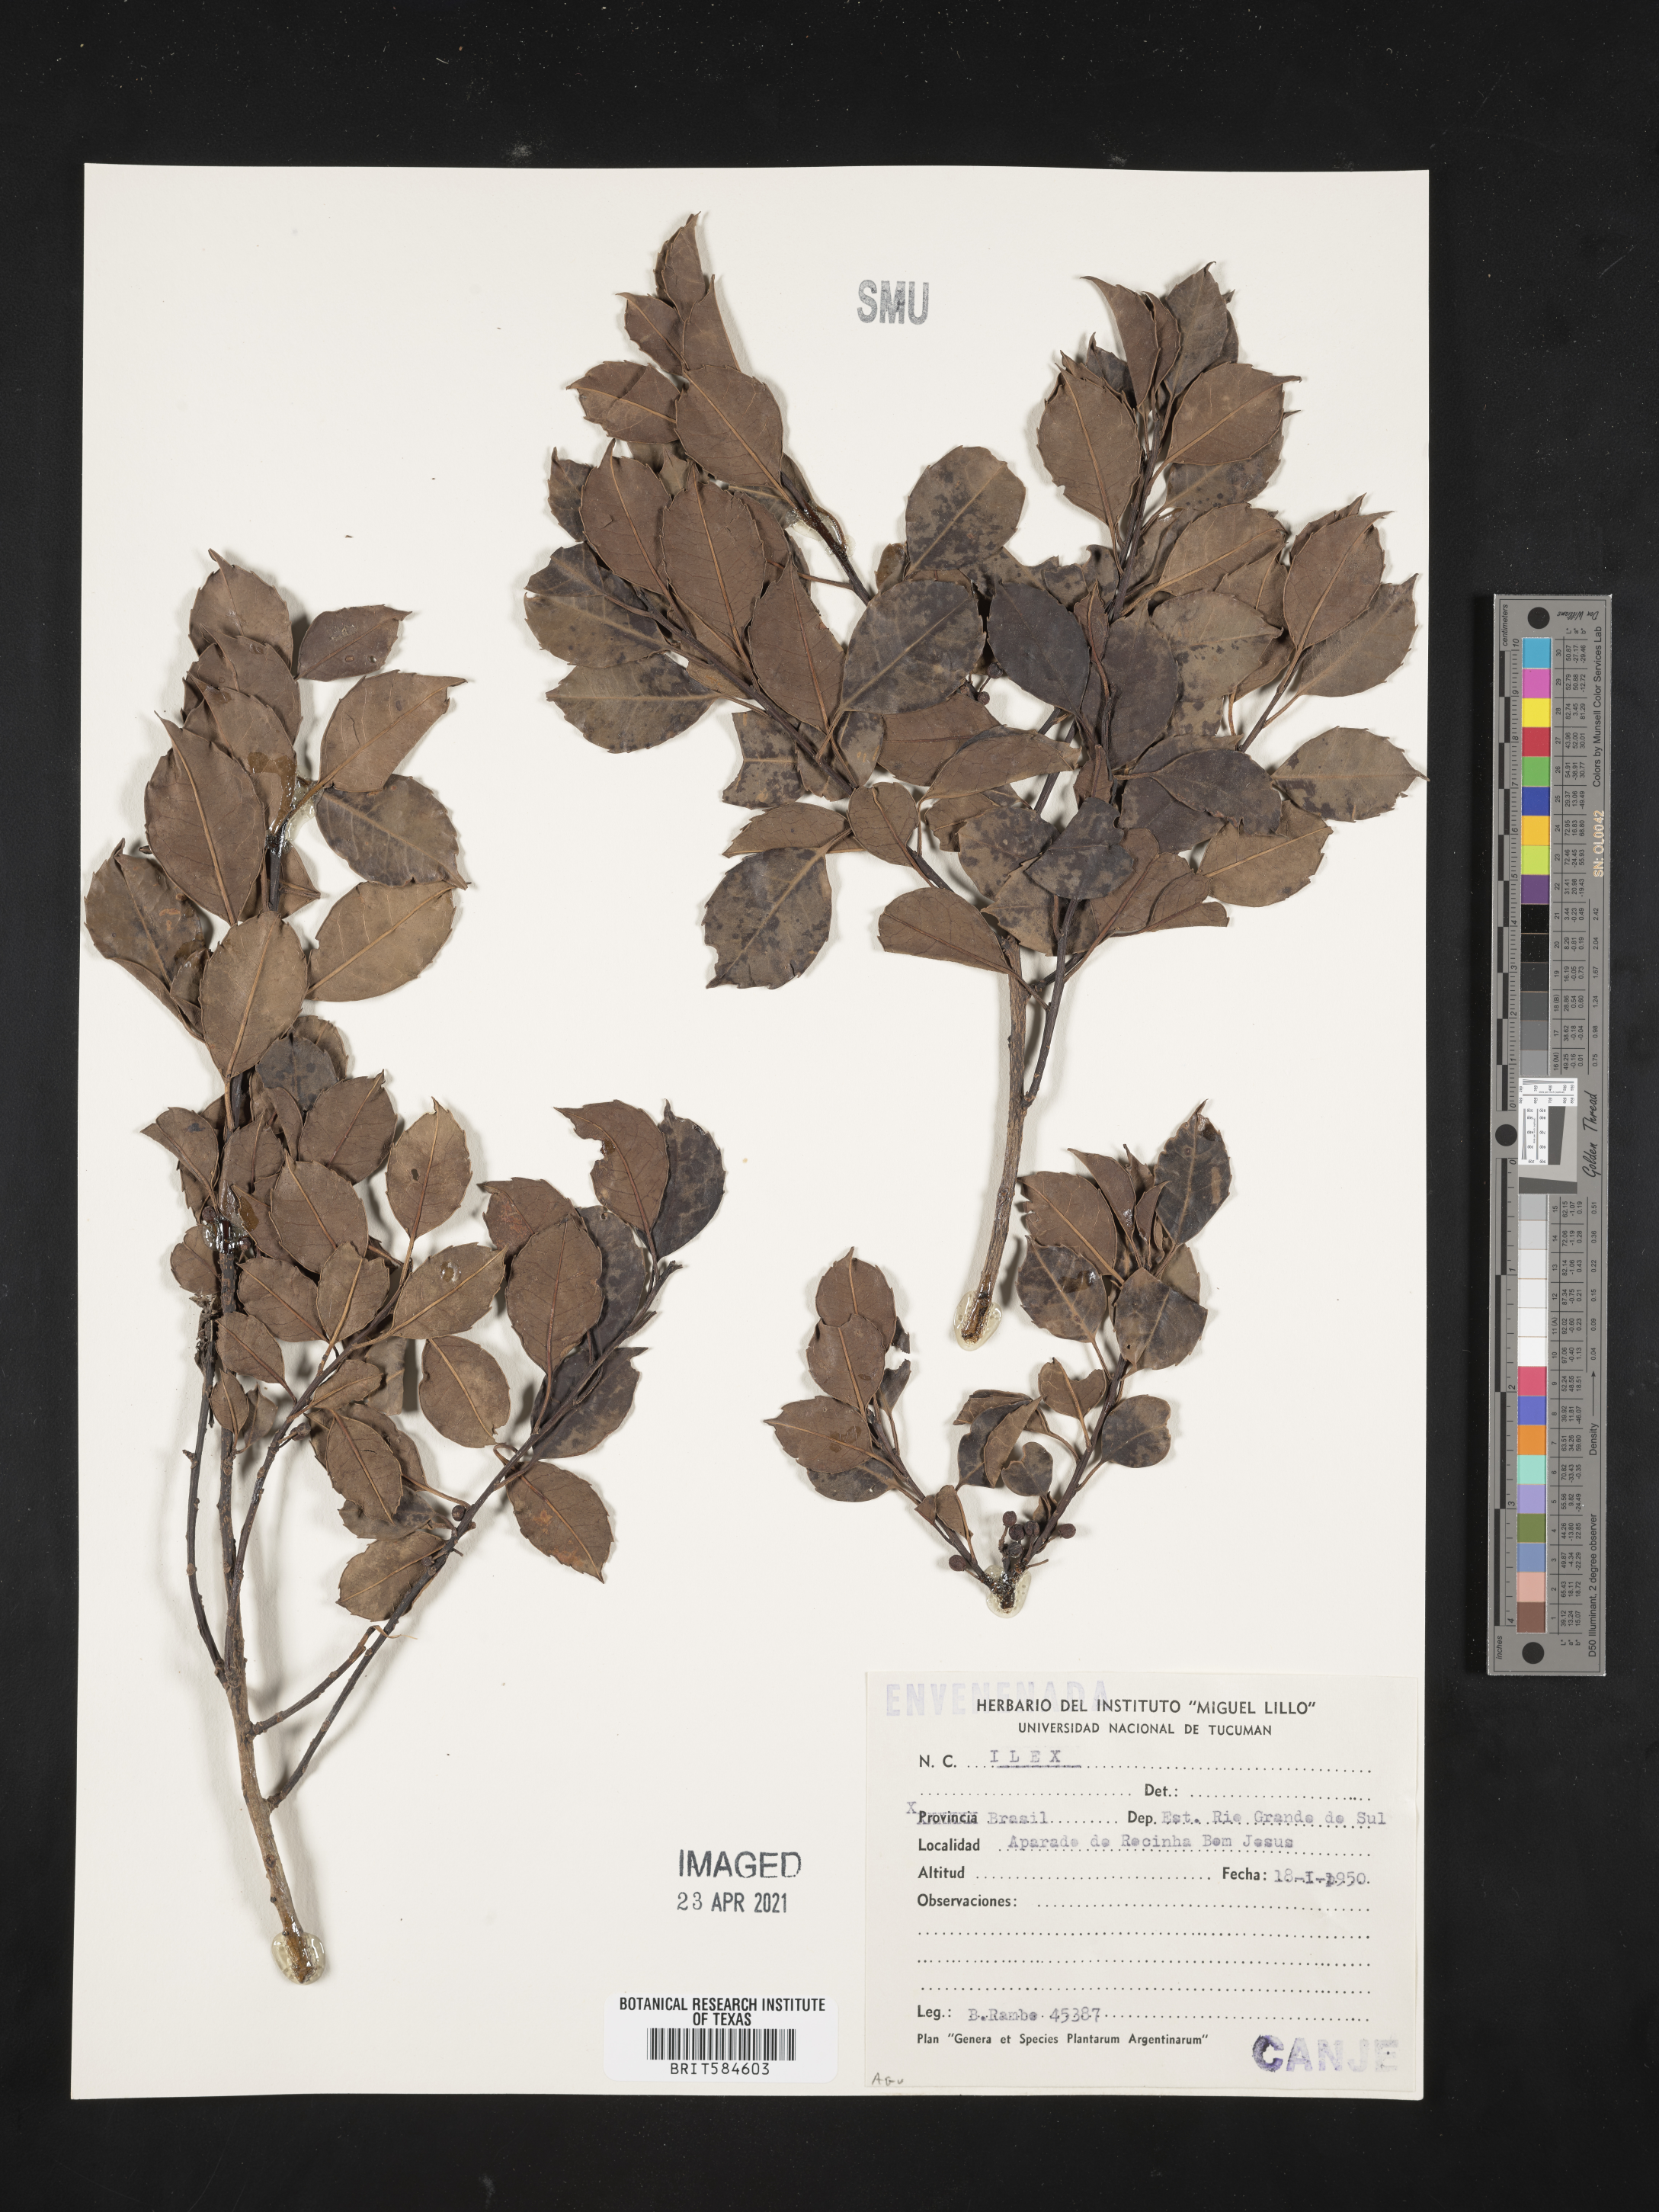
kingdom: Plantae
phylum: Tracheophyta
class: Magnoliopsida
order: Aquifoliales
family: Aquifoliaceae
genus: Ilex
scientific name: Ilex
